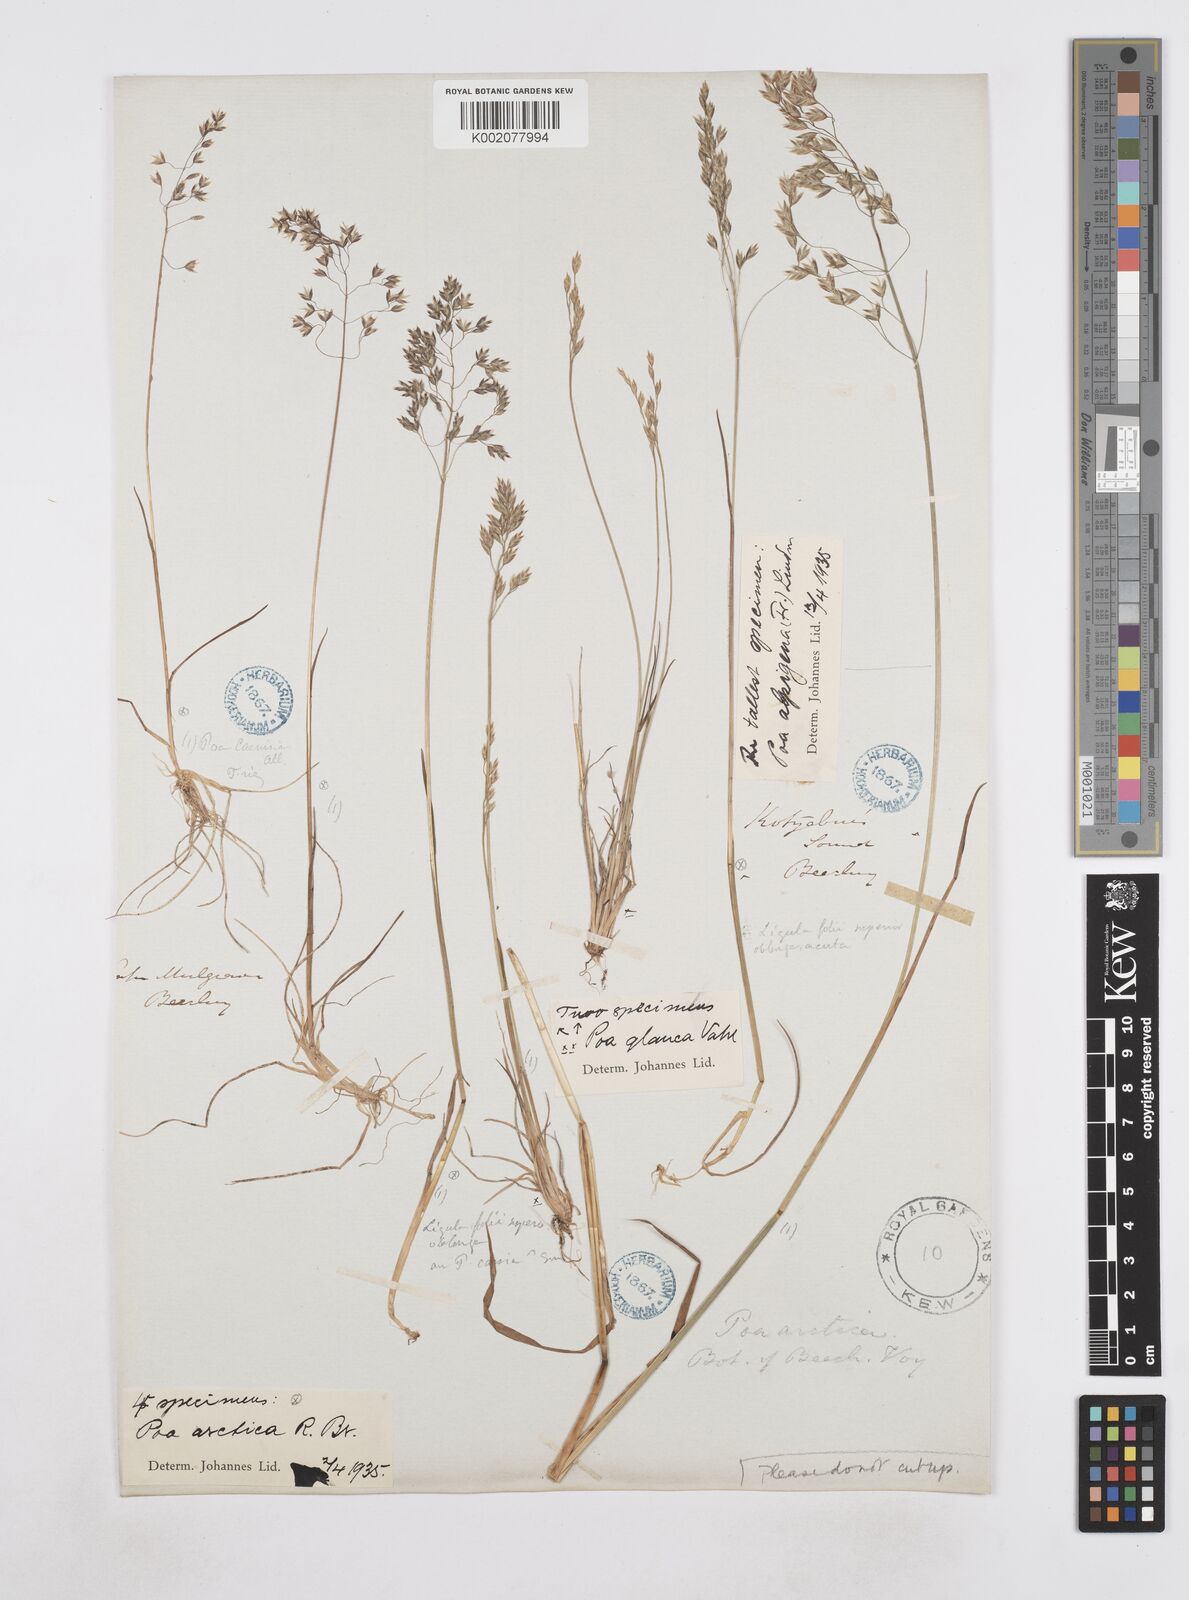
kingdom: Plantae
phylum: Tracheophyta
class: Liliopsida
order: Poales
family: Poaceae
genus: Poa
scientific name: Poa arctica
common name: Arctic bluegrass
